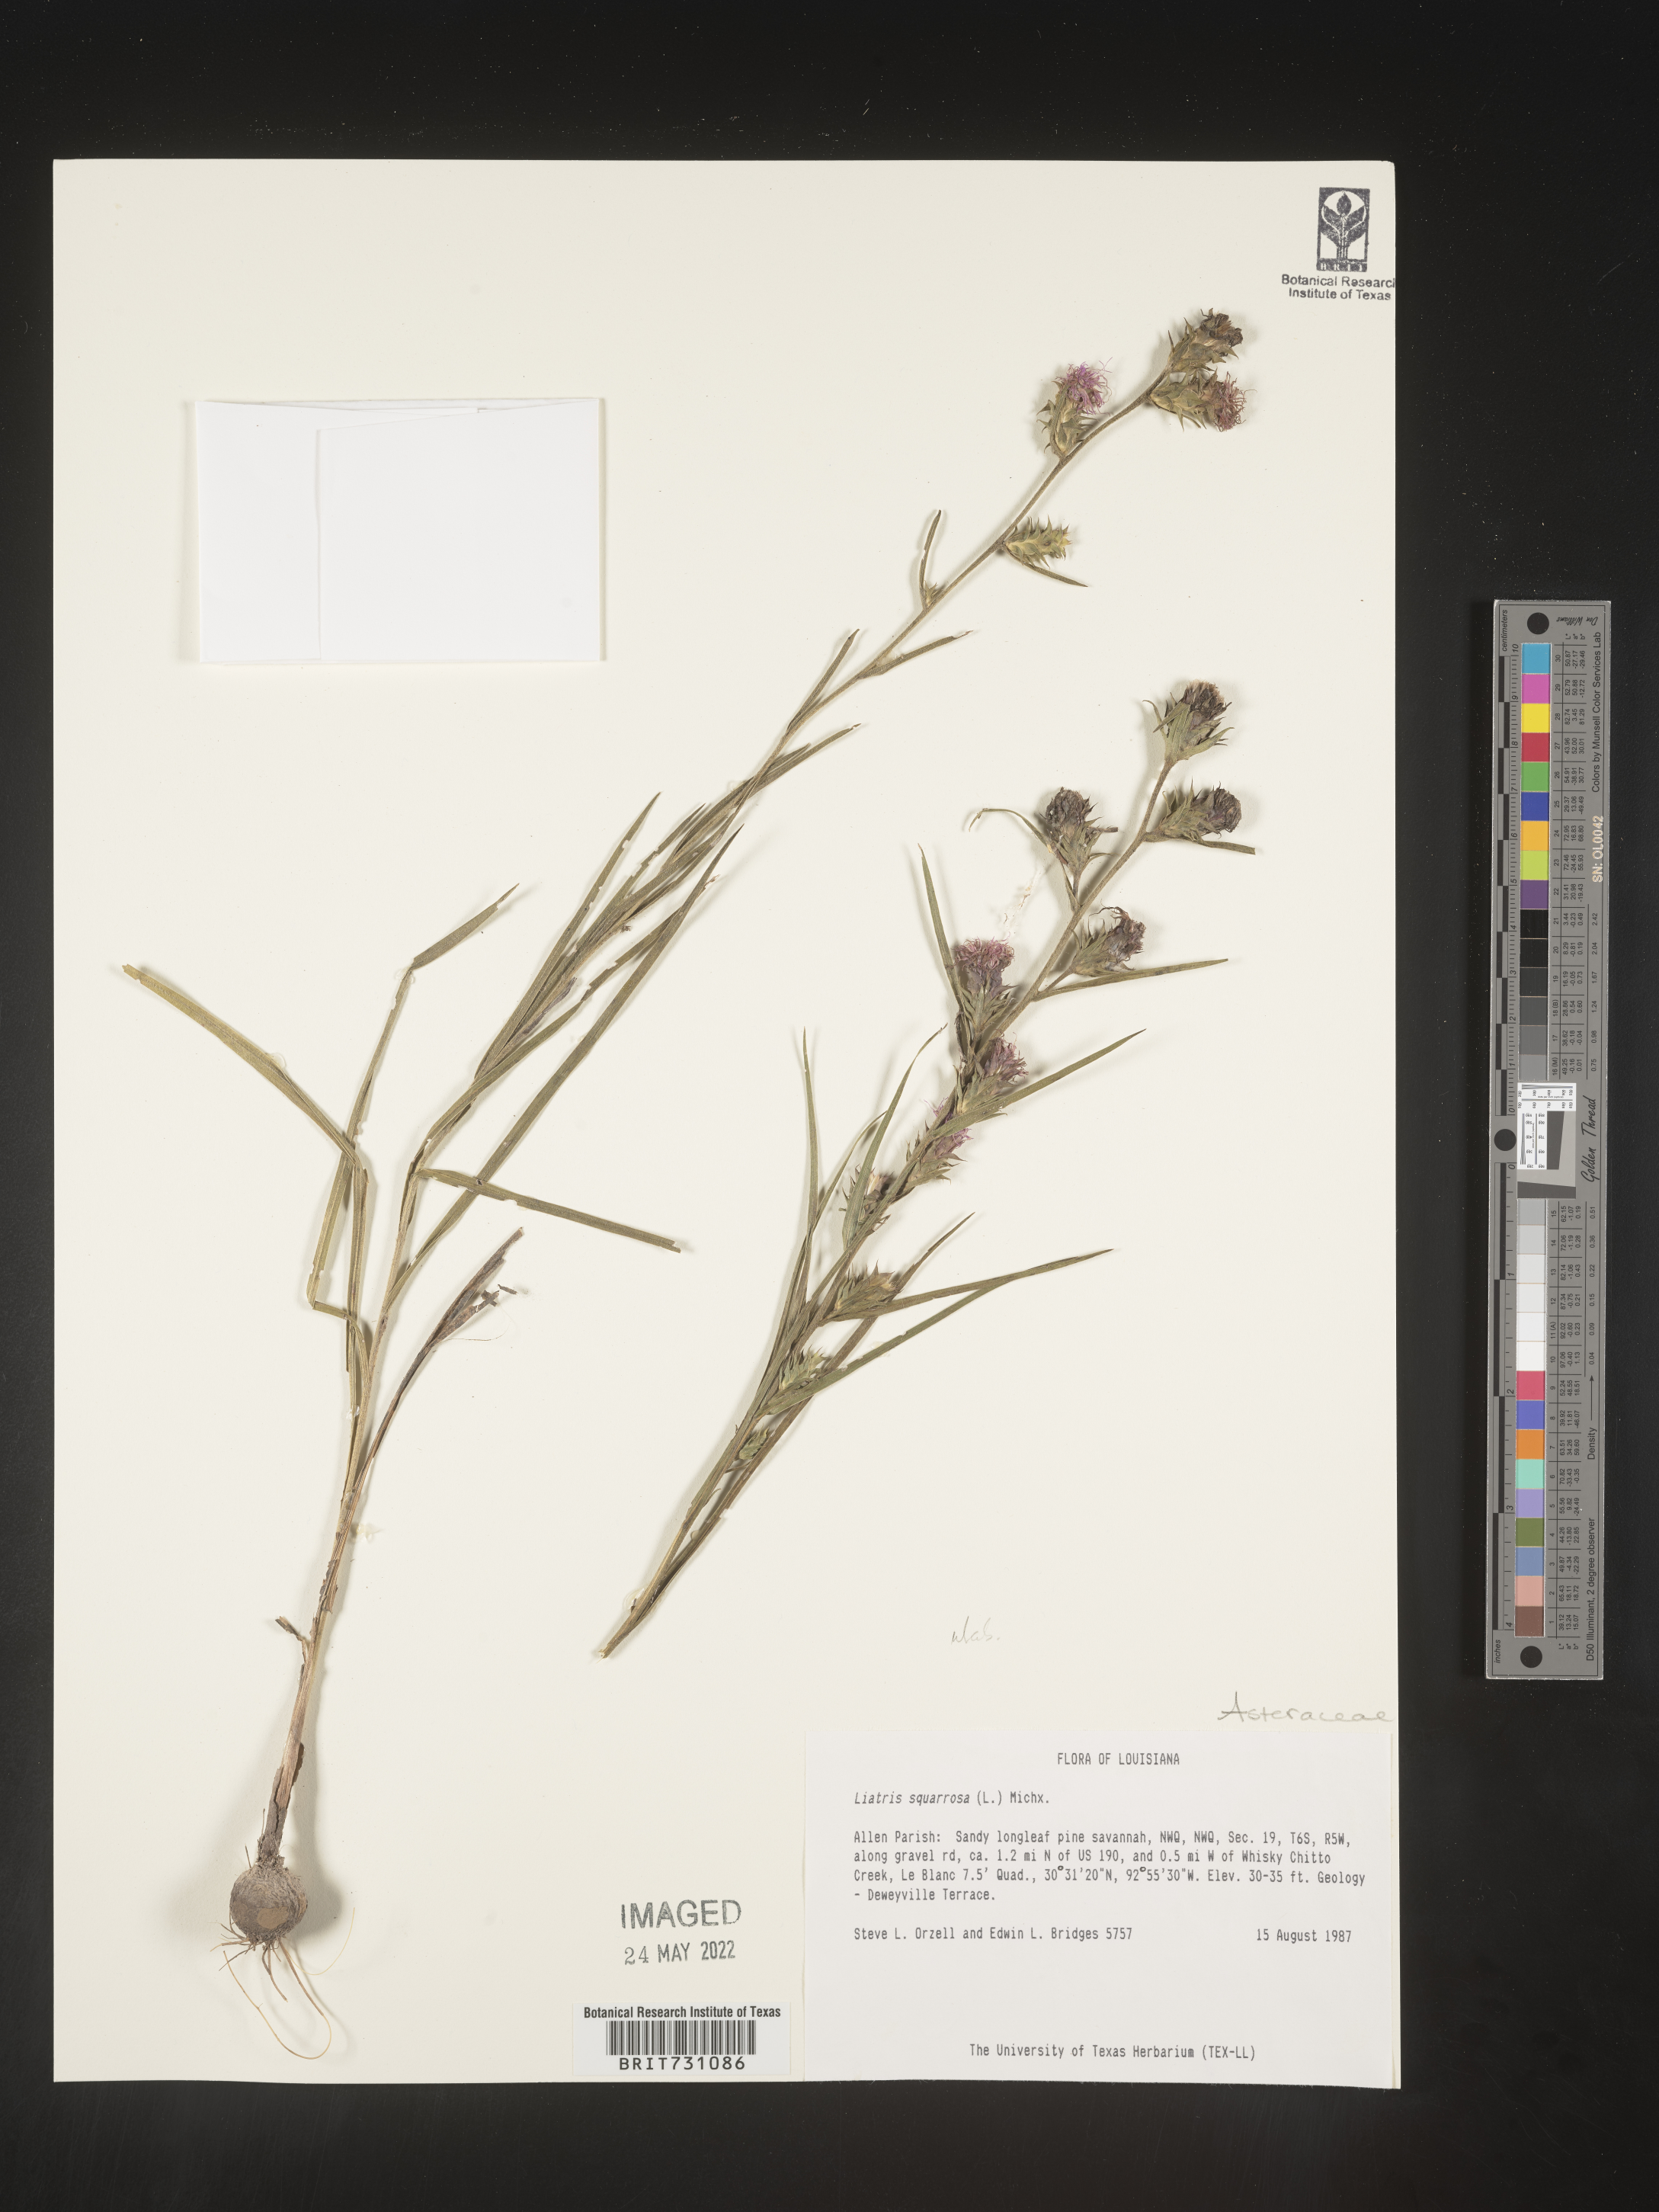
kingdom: Plantae
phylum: Tracheophyta
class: Magnoliopsida
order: Asterales
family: Asteraceae
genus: Liatris
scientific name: Liatris squarrosa
